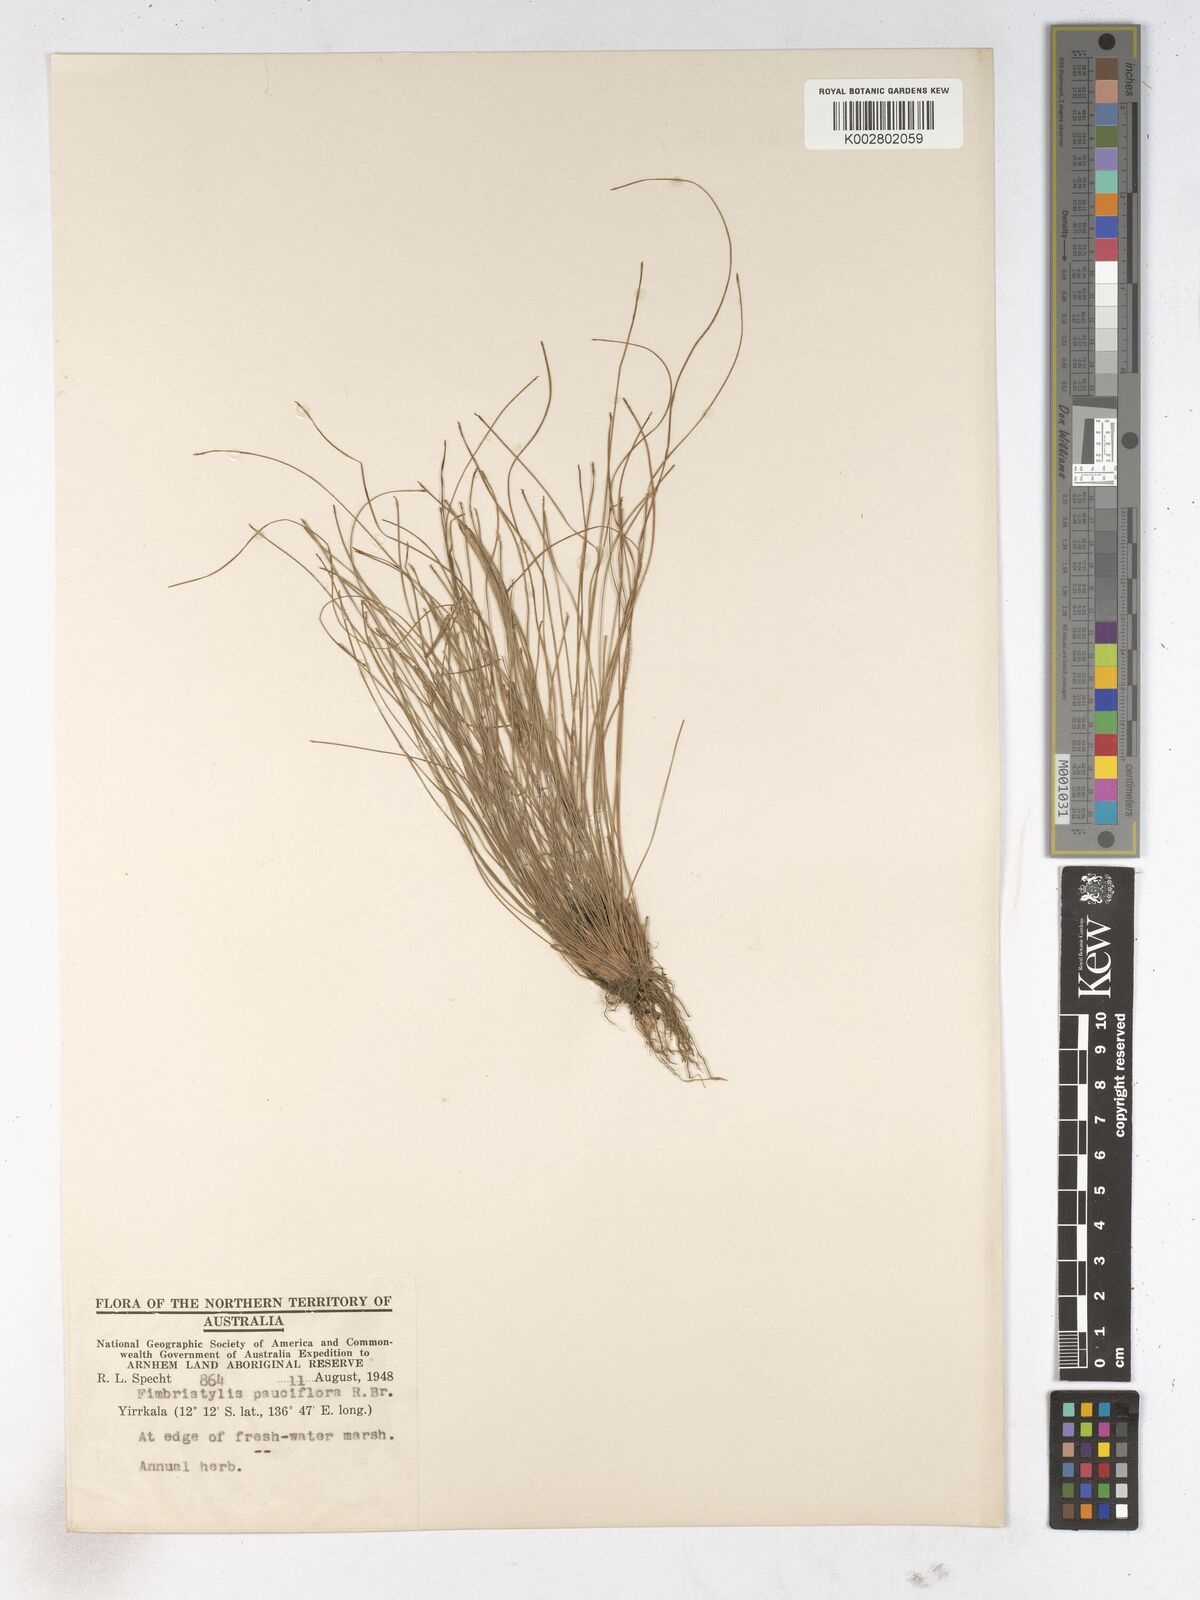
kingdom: Plantae
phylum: Tracheophyta
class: Liliopsida
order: Poales
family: Cyperaceae
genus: Fimbristylis
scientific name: Fimbristylis pauciflora
